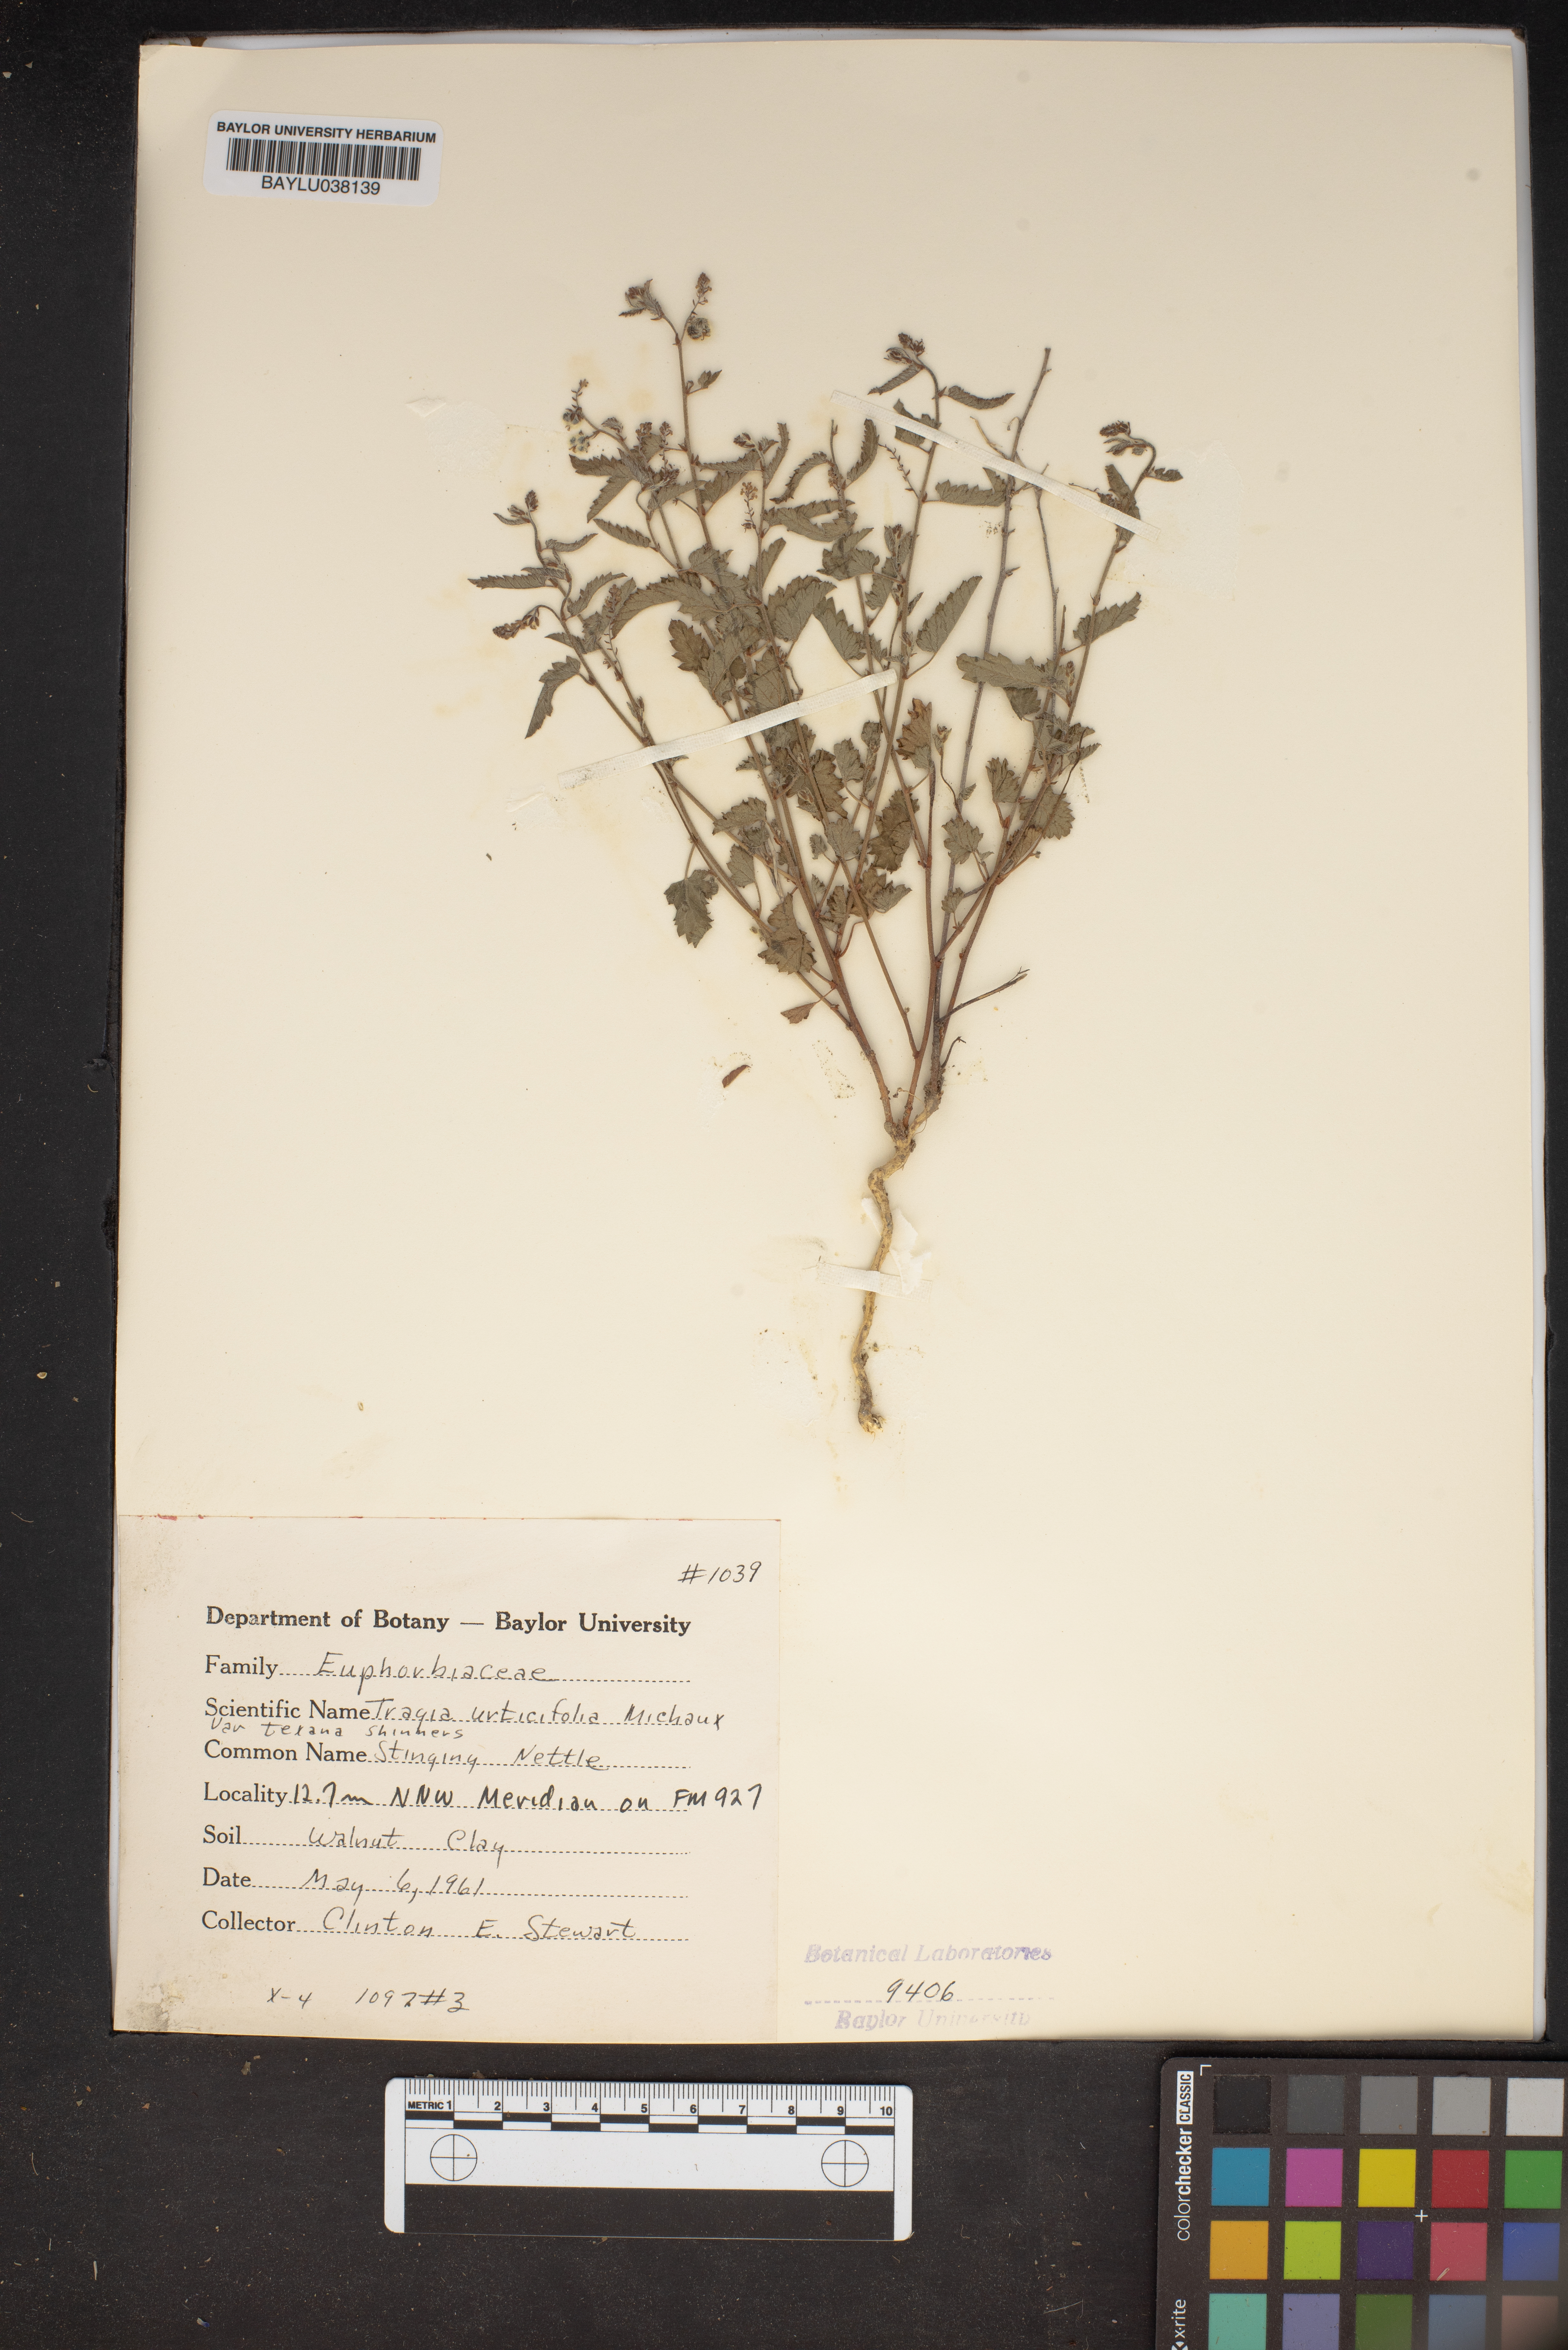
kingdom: Plantae
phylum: Tracheophyta
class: Magnoliopsida
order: Malpighiales
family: Euphorbiaceae
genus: Tragia
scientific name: Tragia urticifolia
